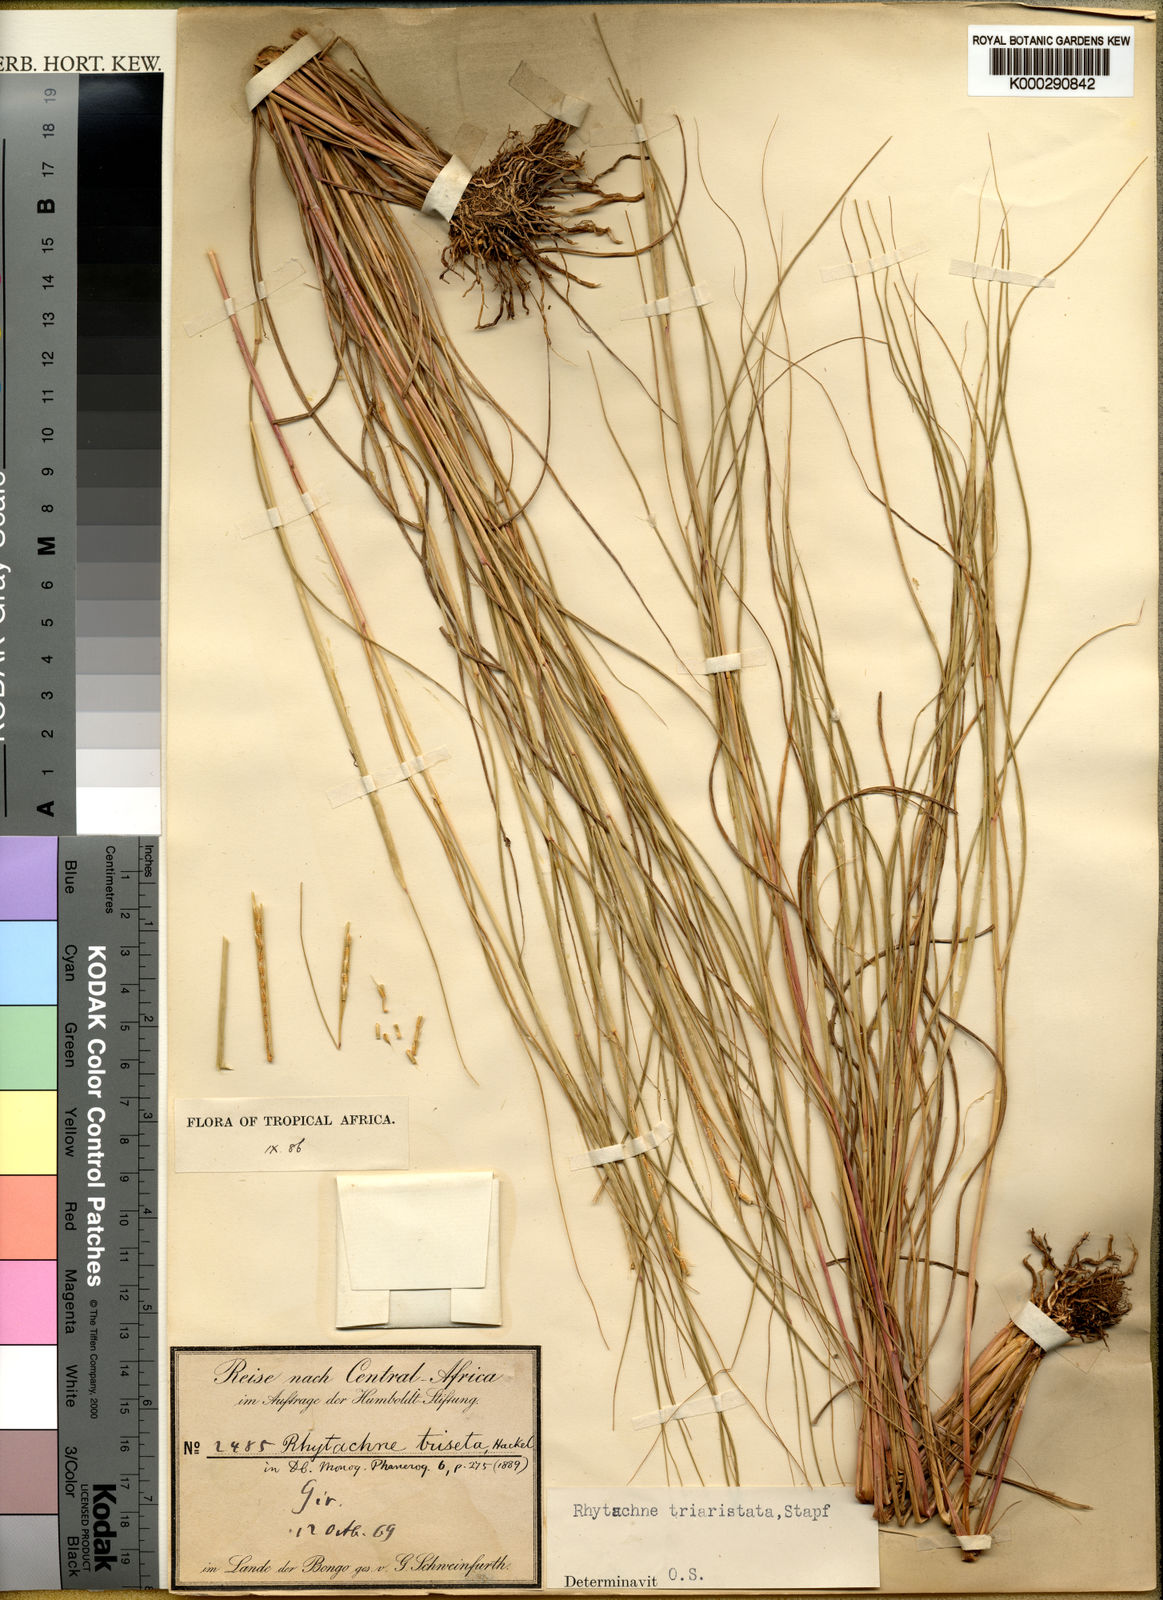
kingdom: Plantae
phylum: Tracheophyta
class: Liliopsida
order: Poales
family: Poaceae
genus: Rhytachne
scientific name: Rhytachne triaristata
